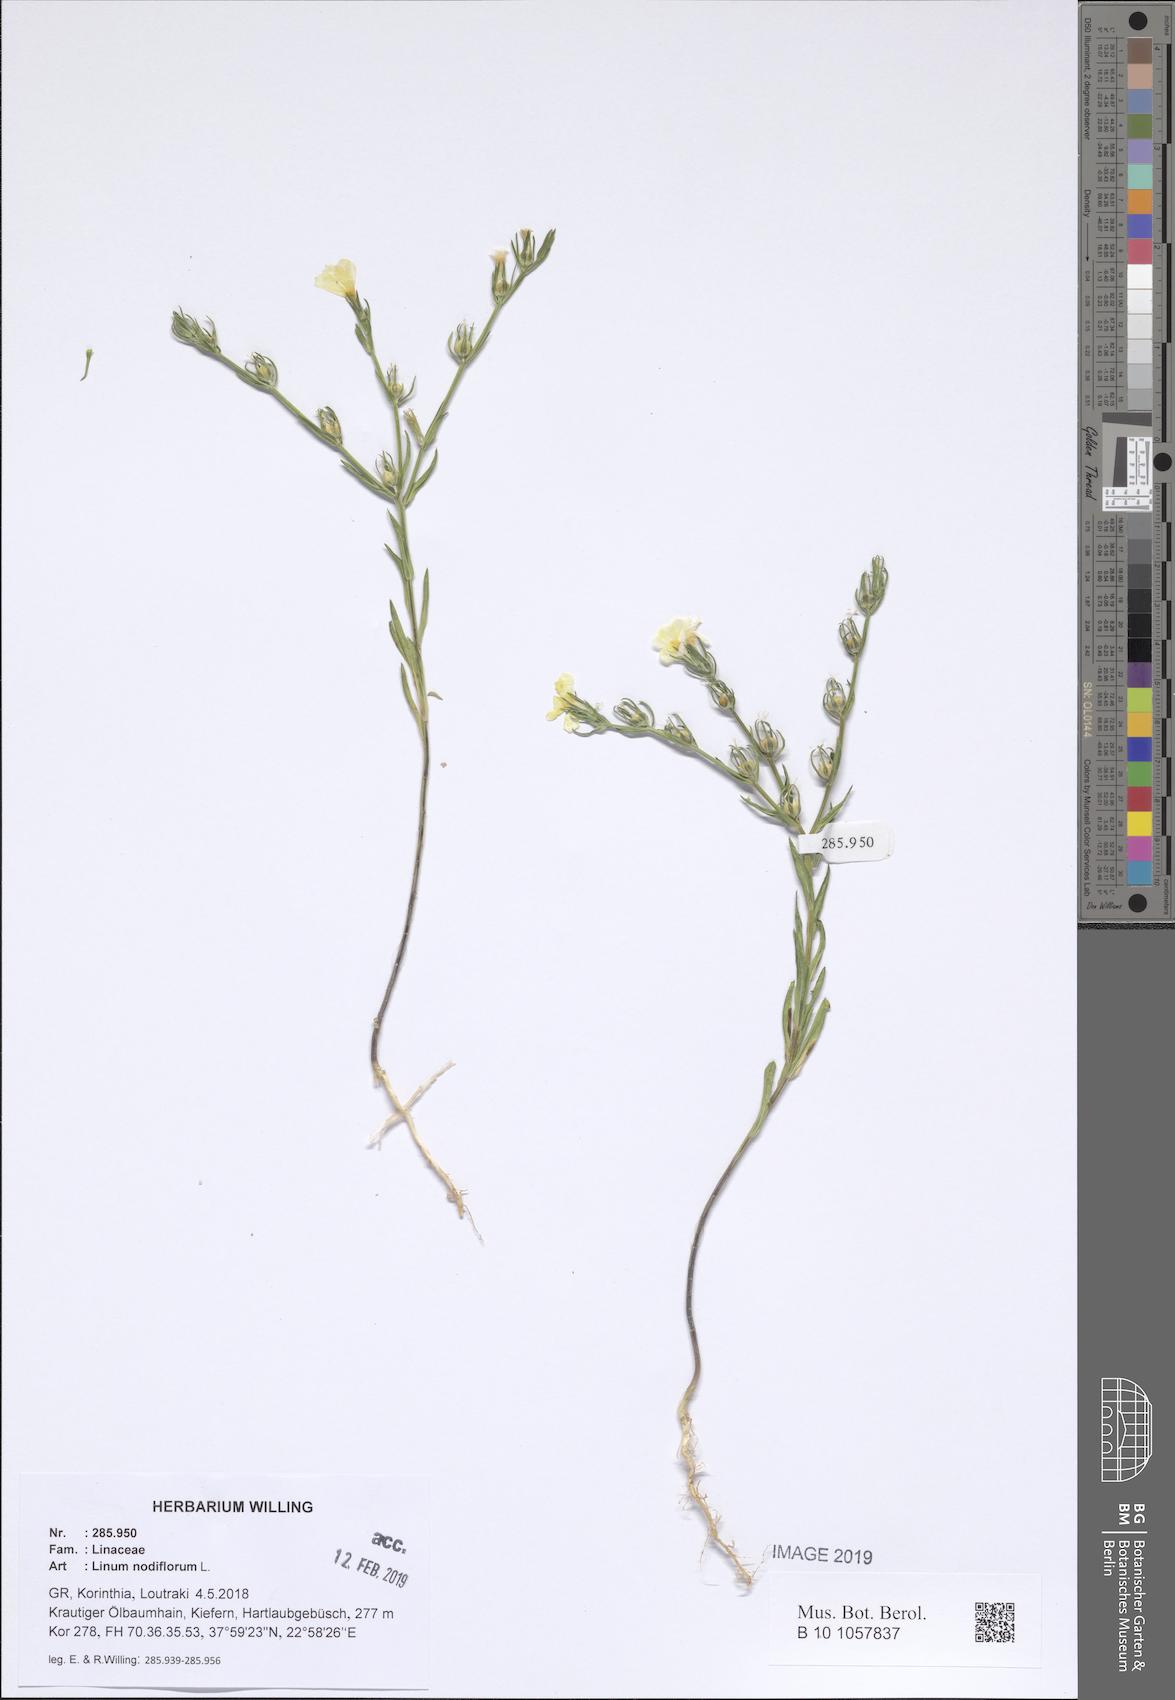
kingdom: Plantae
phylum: Tracheophyta
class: Magnoliopsida
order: Malpighiales
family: Linaceae
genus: Linum
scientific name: Linum nodiflorum
